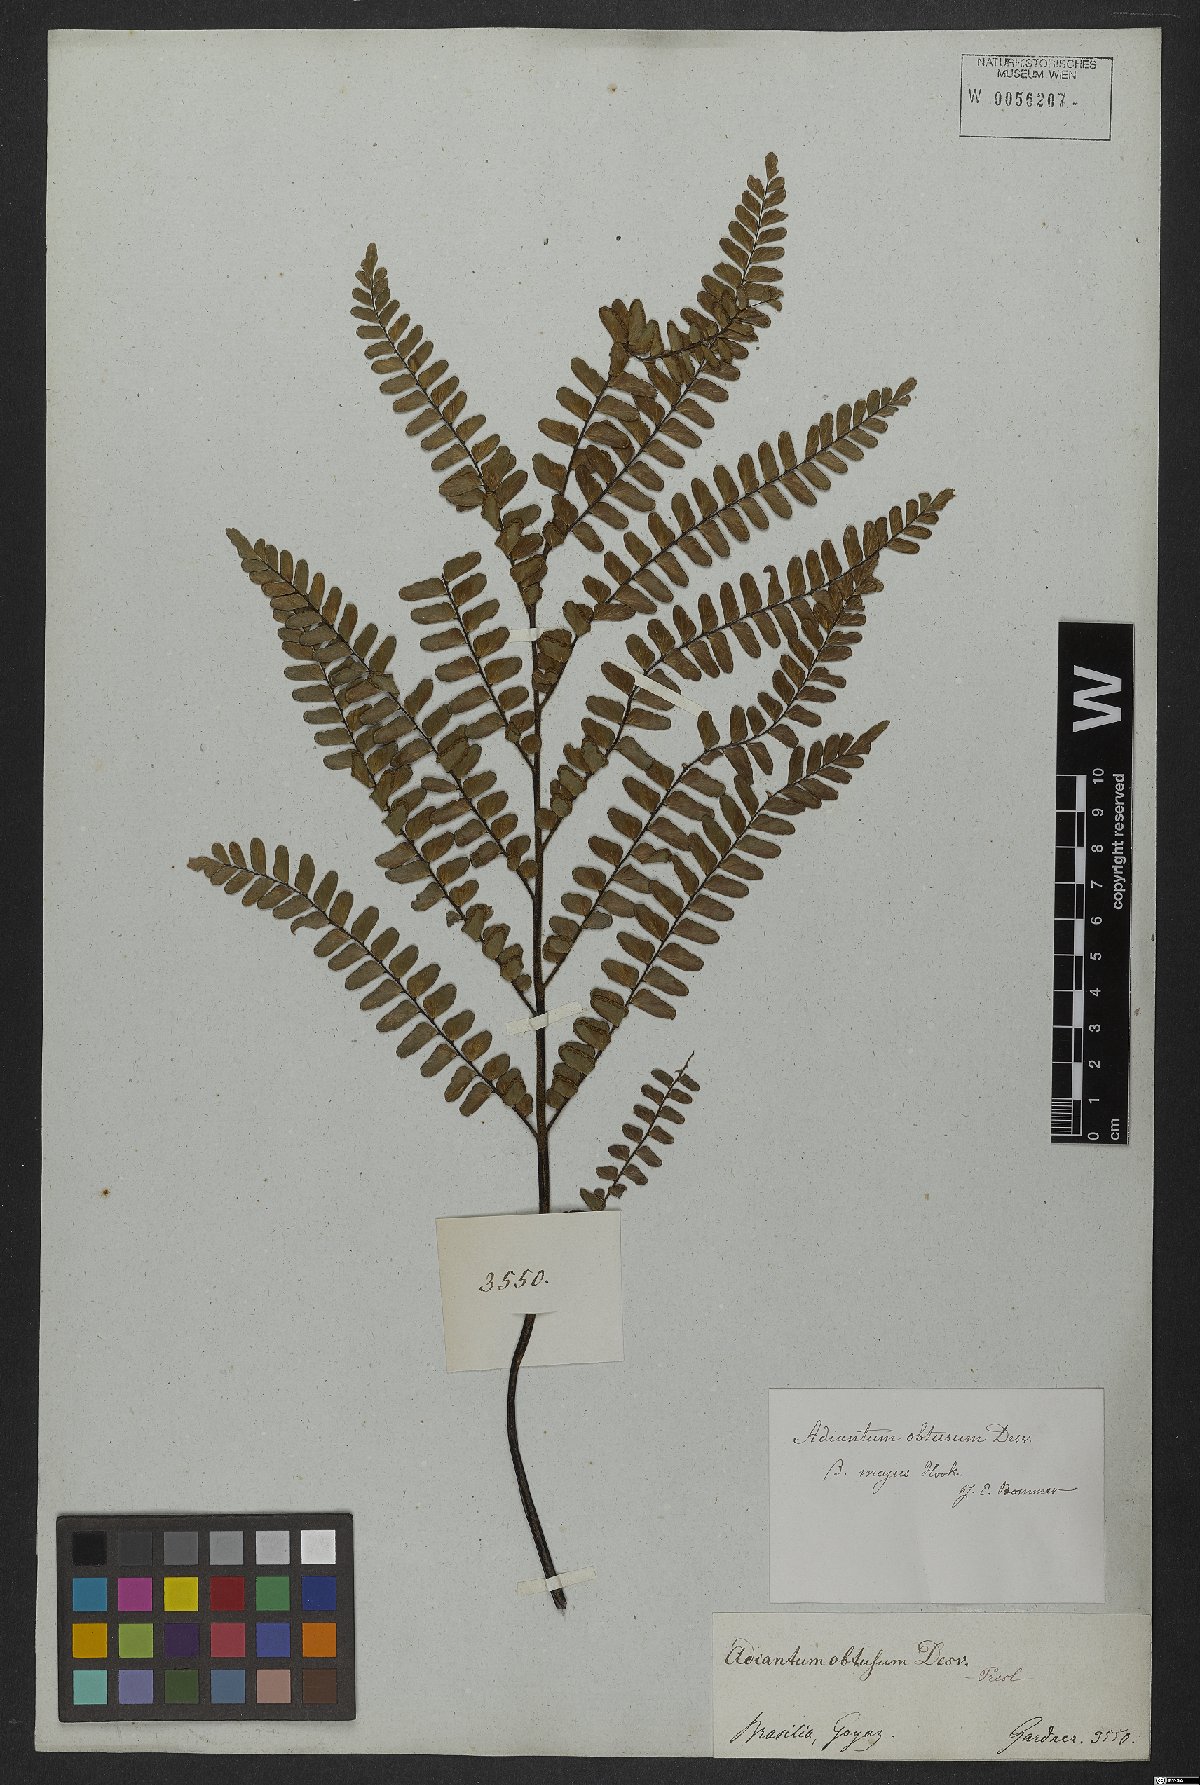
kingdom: Plantae
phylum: Tracheophyta
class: Polypodiopsida
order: Polypodiales
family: Pteridaceae
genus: Adiantum
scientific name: Adiantum serratodentatum
